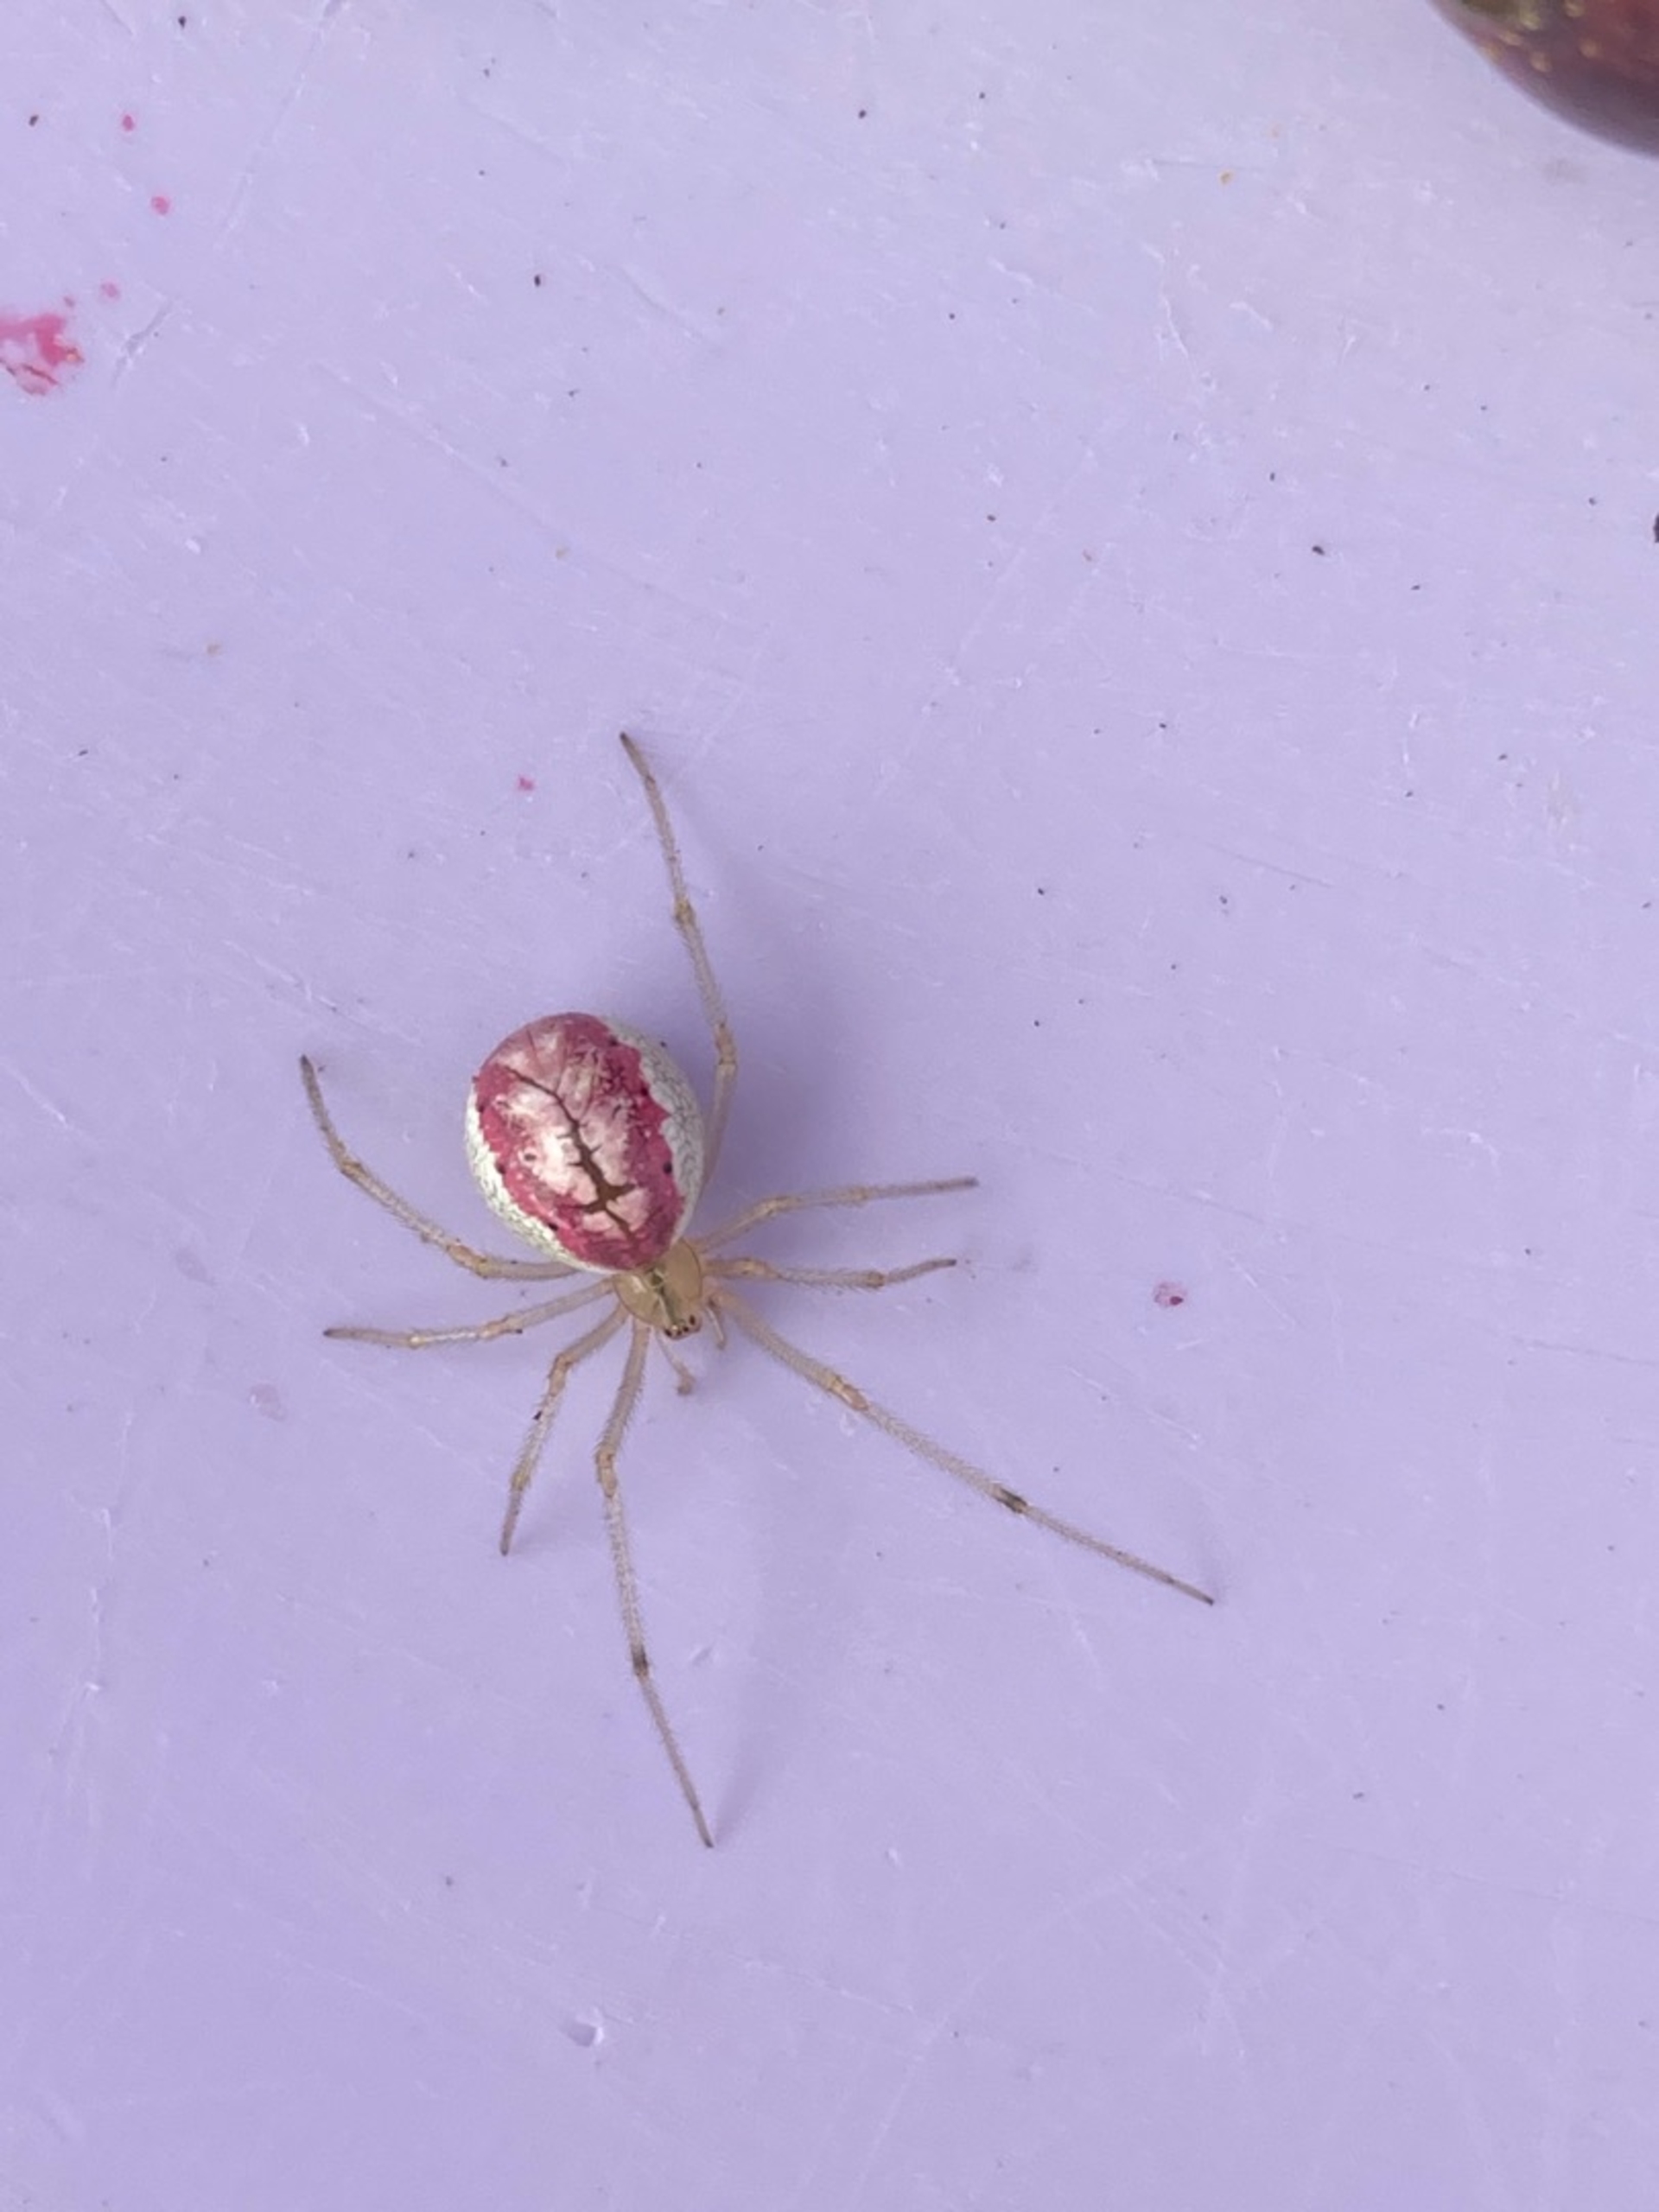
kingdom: Animalia
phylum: Arthropoda
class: Arachnida
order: Araneae
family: Theridiidae
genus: Enoplognatha
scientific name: Enoplognatha
